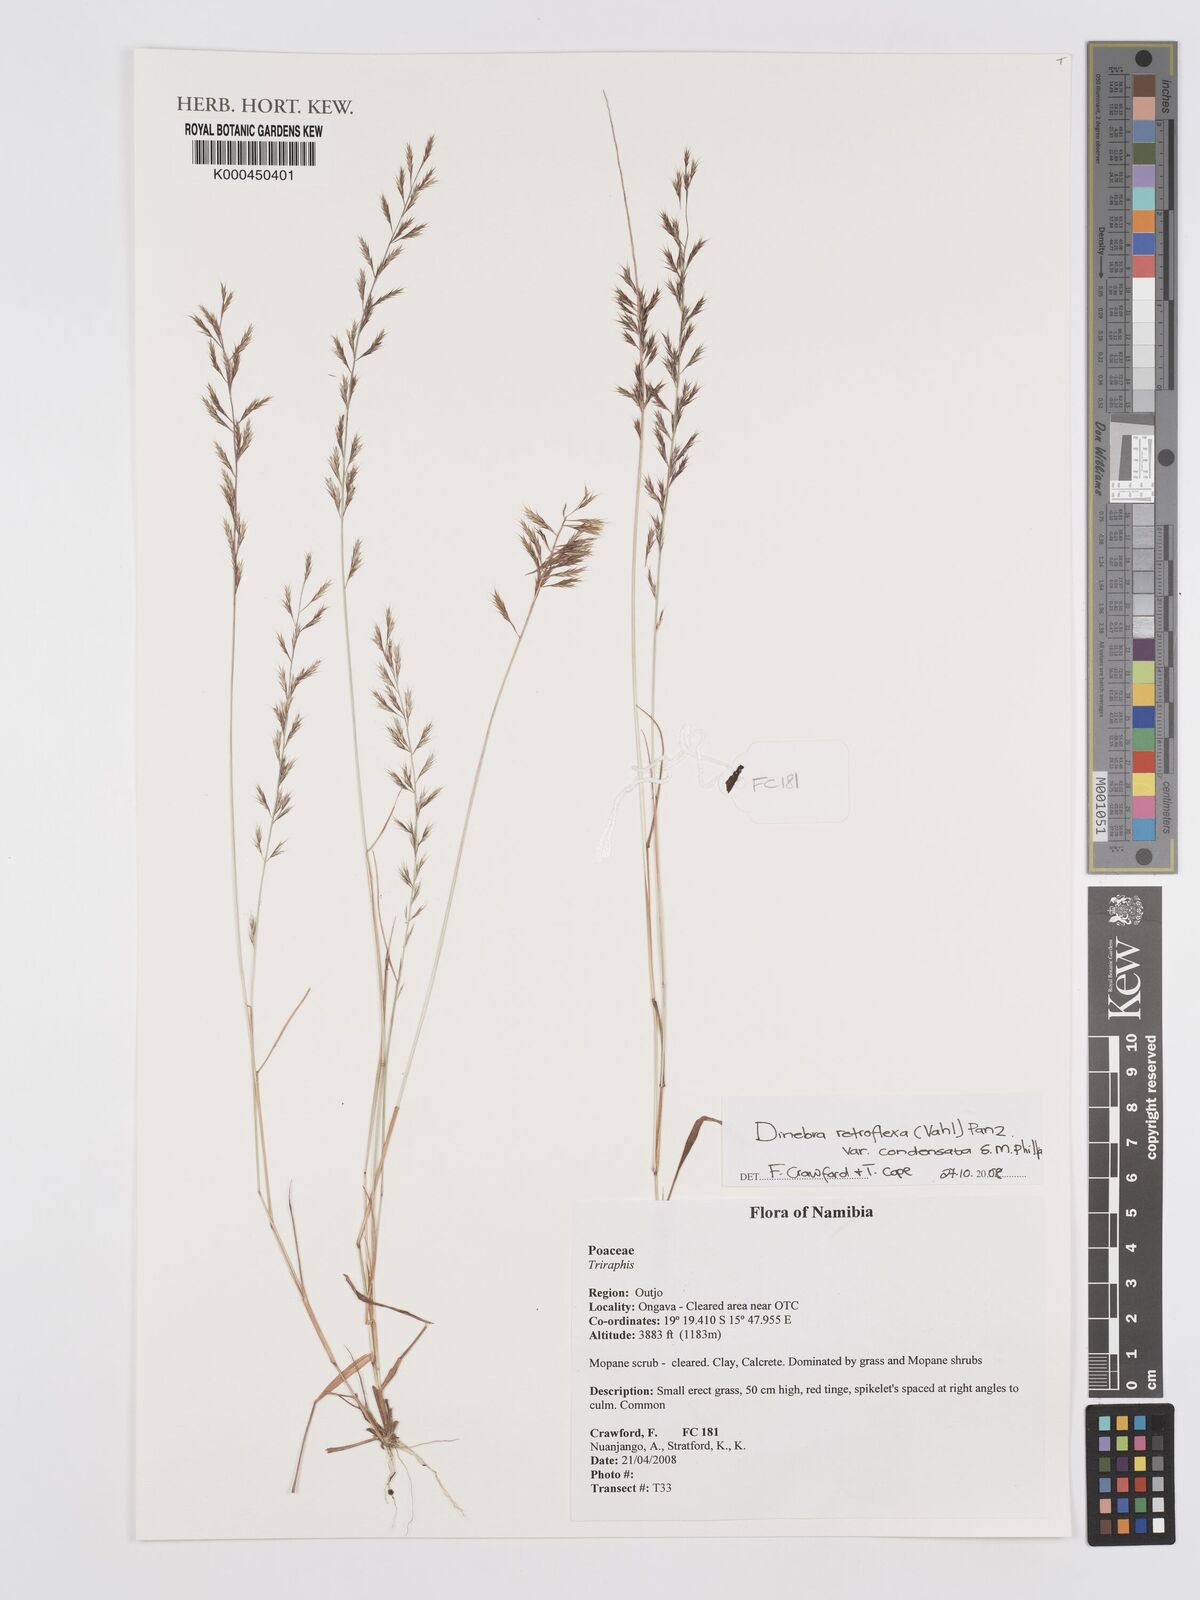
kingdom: Plantae
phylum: Tracheophyta
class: Liliopsida
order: Poales
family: Poaceae
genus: Dinebra
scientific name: Dinebra retroflexa
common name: Viper grass
